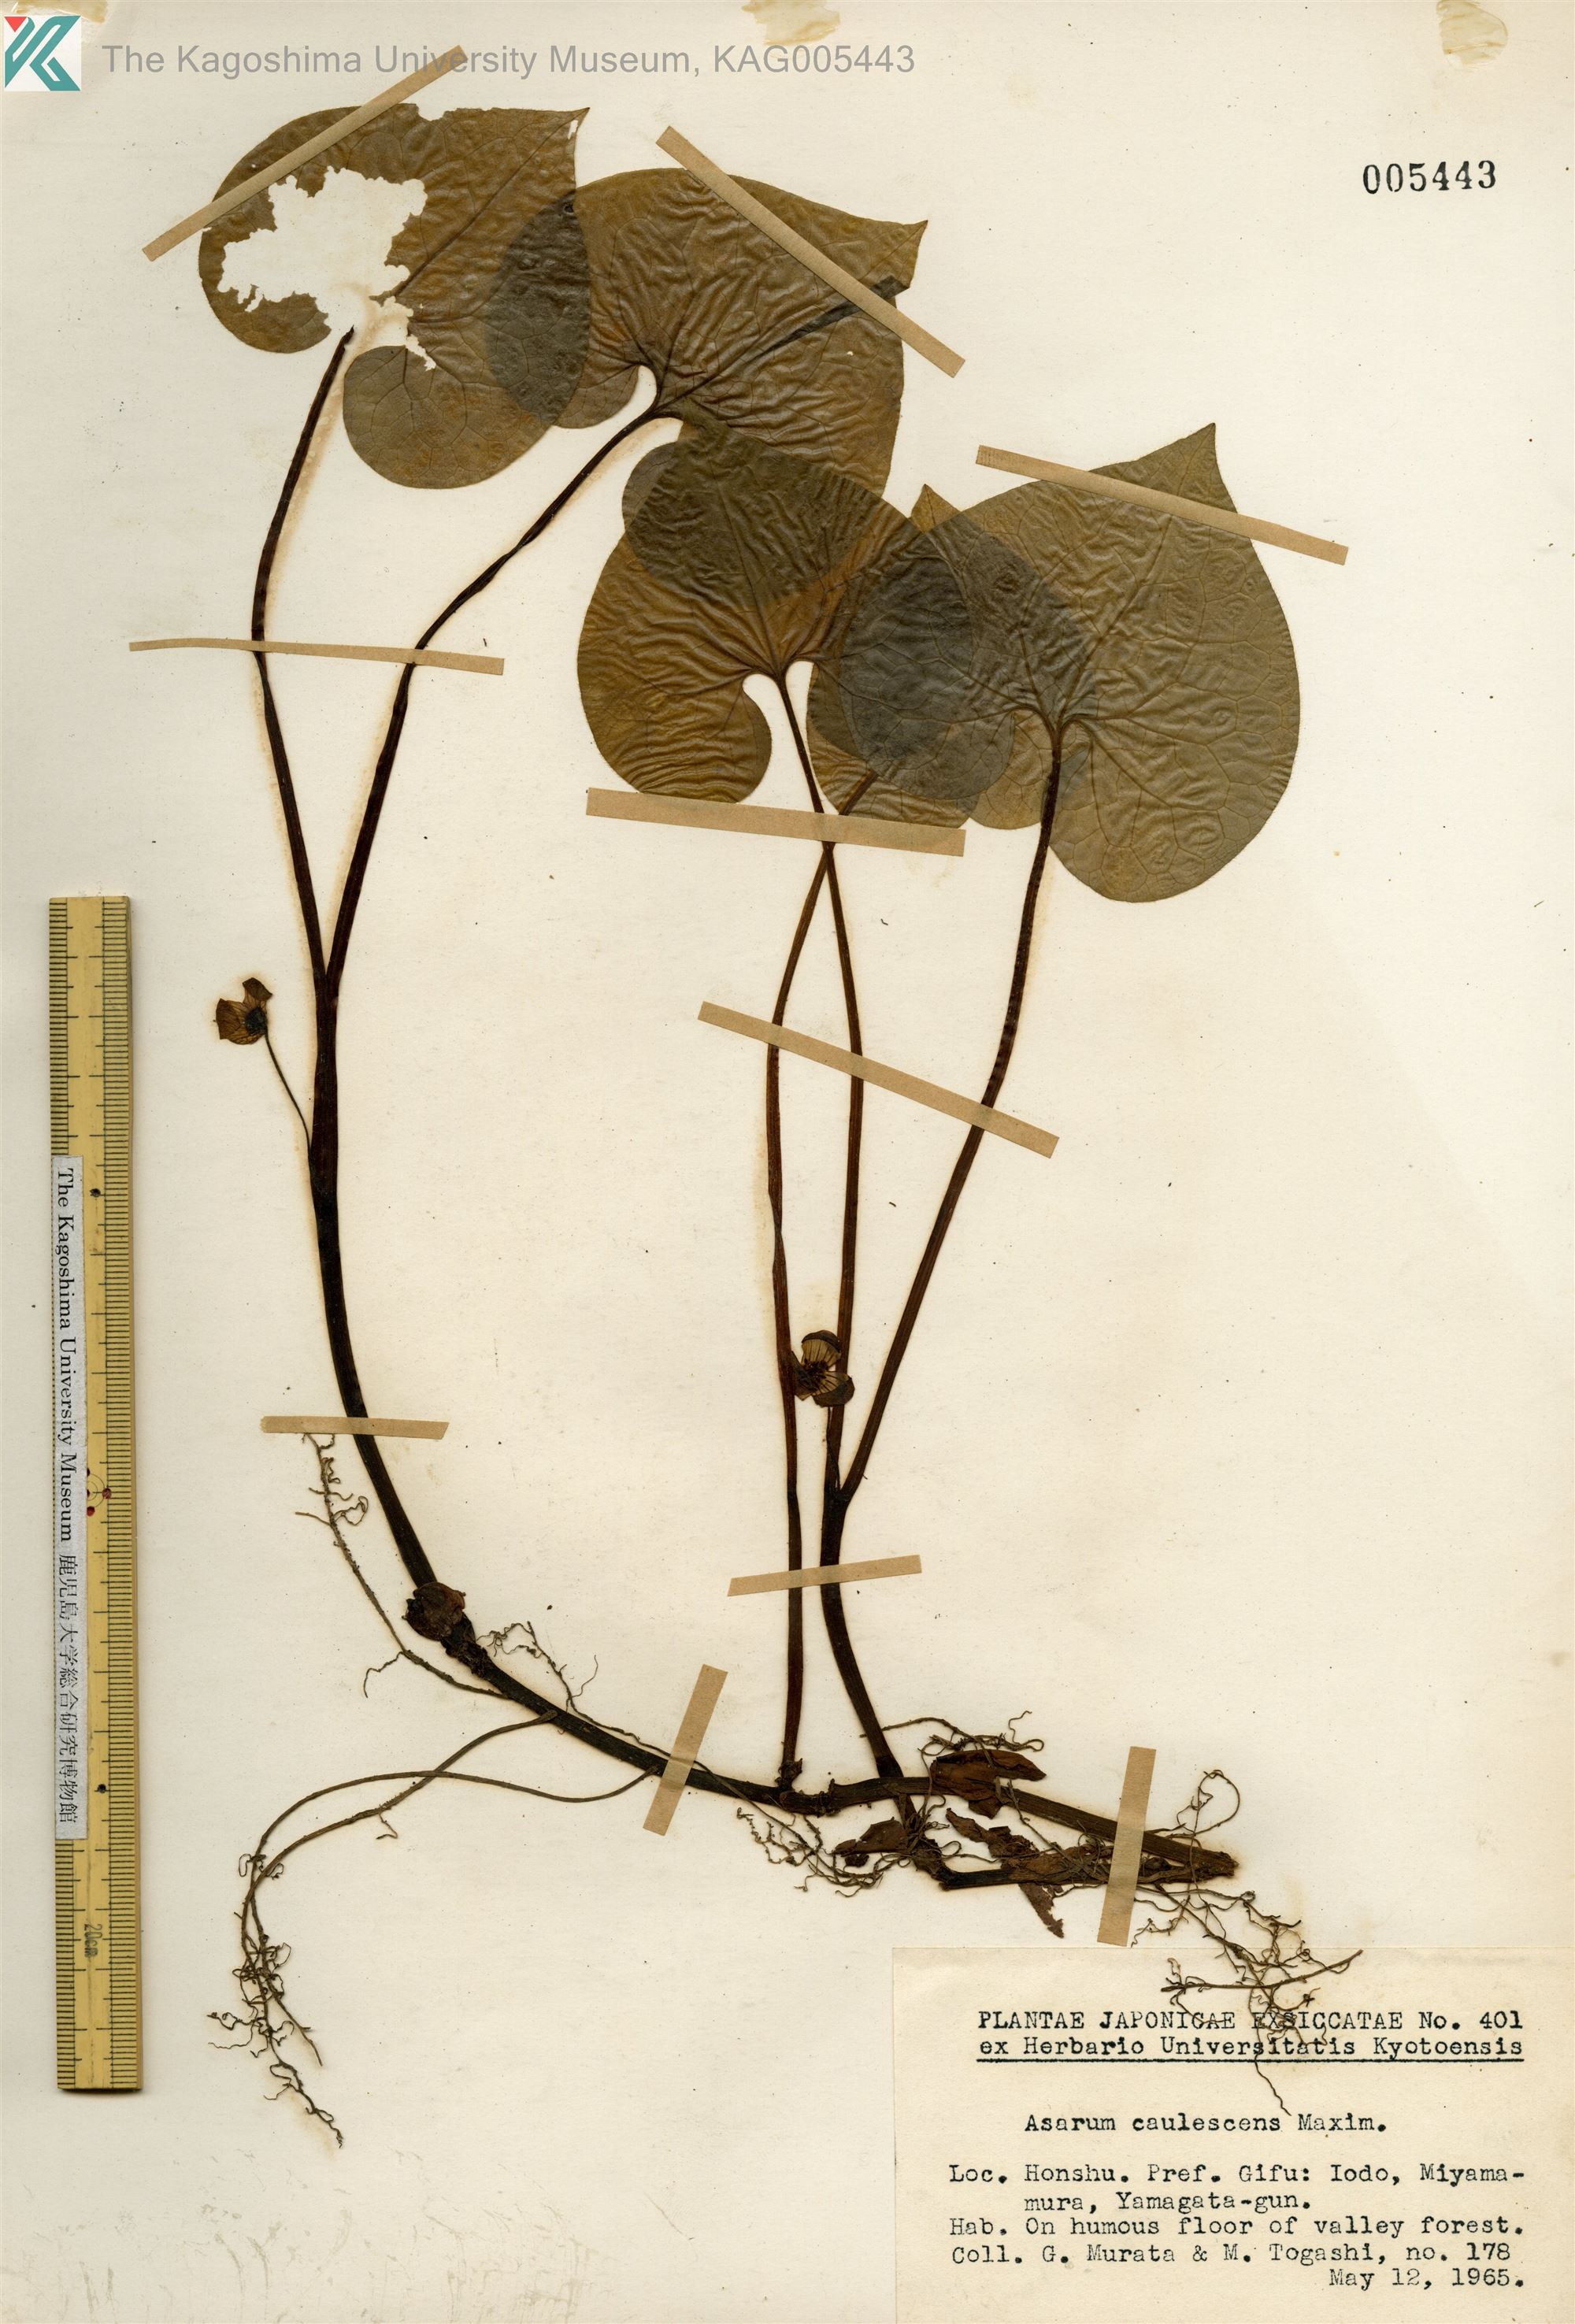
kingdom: Plantae
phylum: Tracheophyta
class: Magnoliopsida
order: Piperales
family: Aristolochiaceae
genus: Asarum
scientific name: Asarum caulescens
